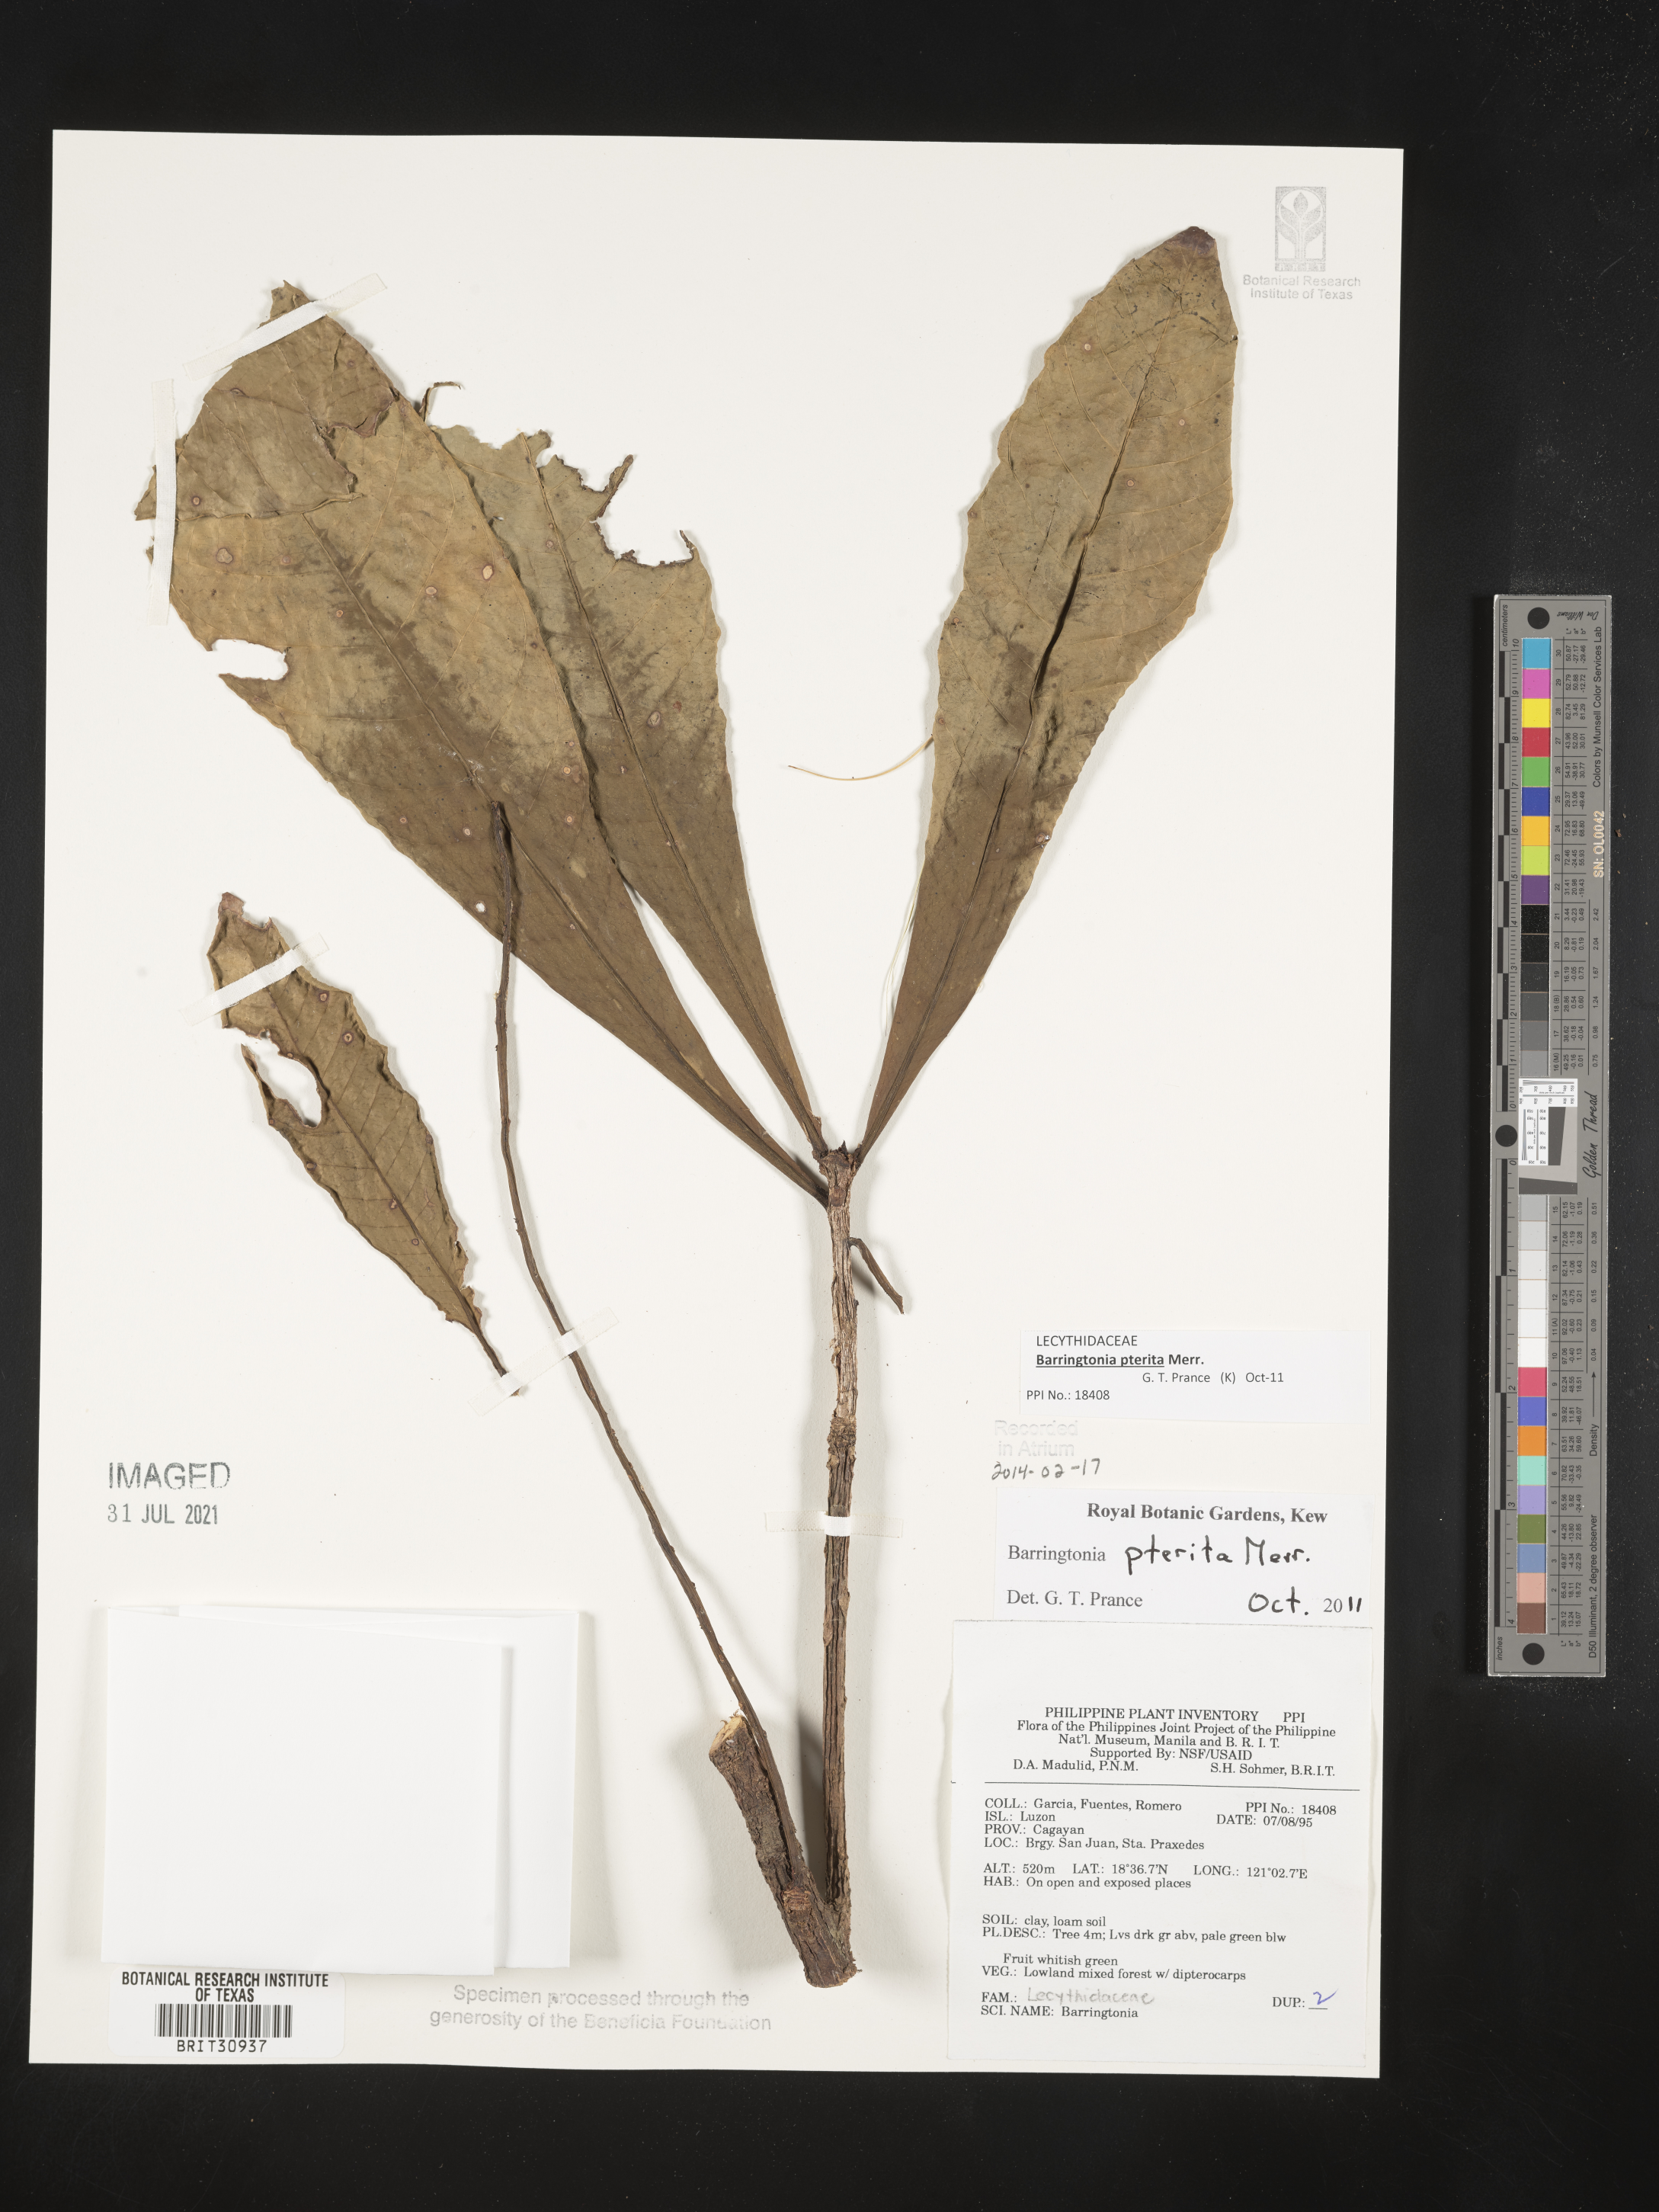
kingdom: Plantae
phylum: Tracheophyta
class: Magnoliopsida
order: Ericales
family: Lecythidaceae
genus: Barringtonia
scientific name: Barringtonia
